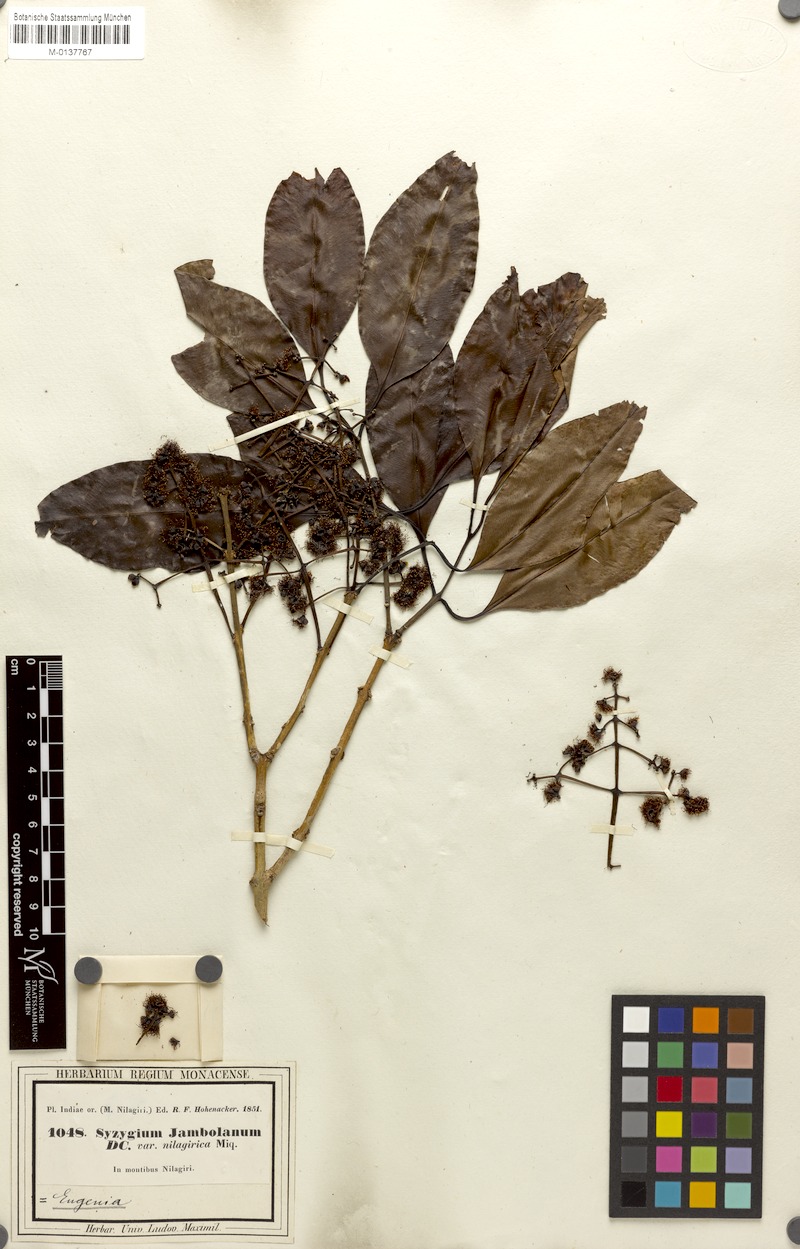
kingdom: Plantae
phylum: Tracheophyta
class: Magnoliopsida
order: Myrtales
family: Myrtaceae
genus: Syzygium
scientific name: Syzygium cumini
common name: Java plum
